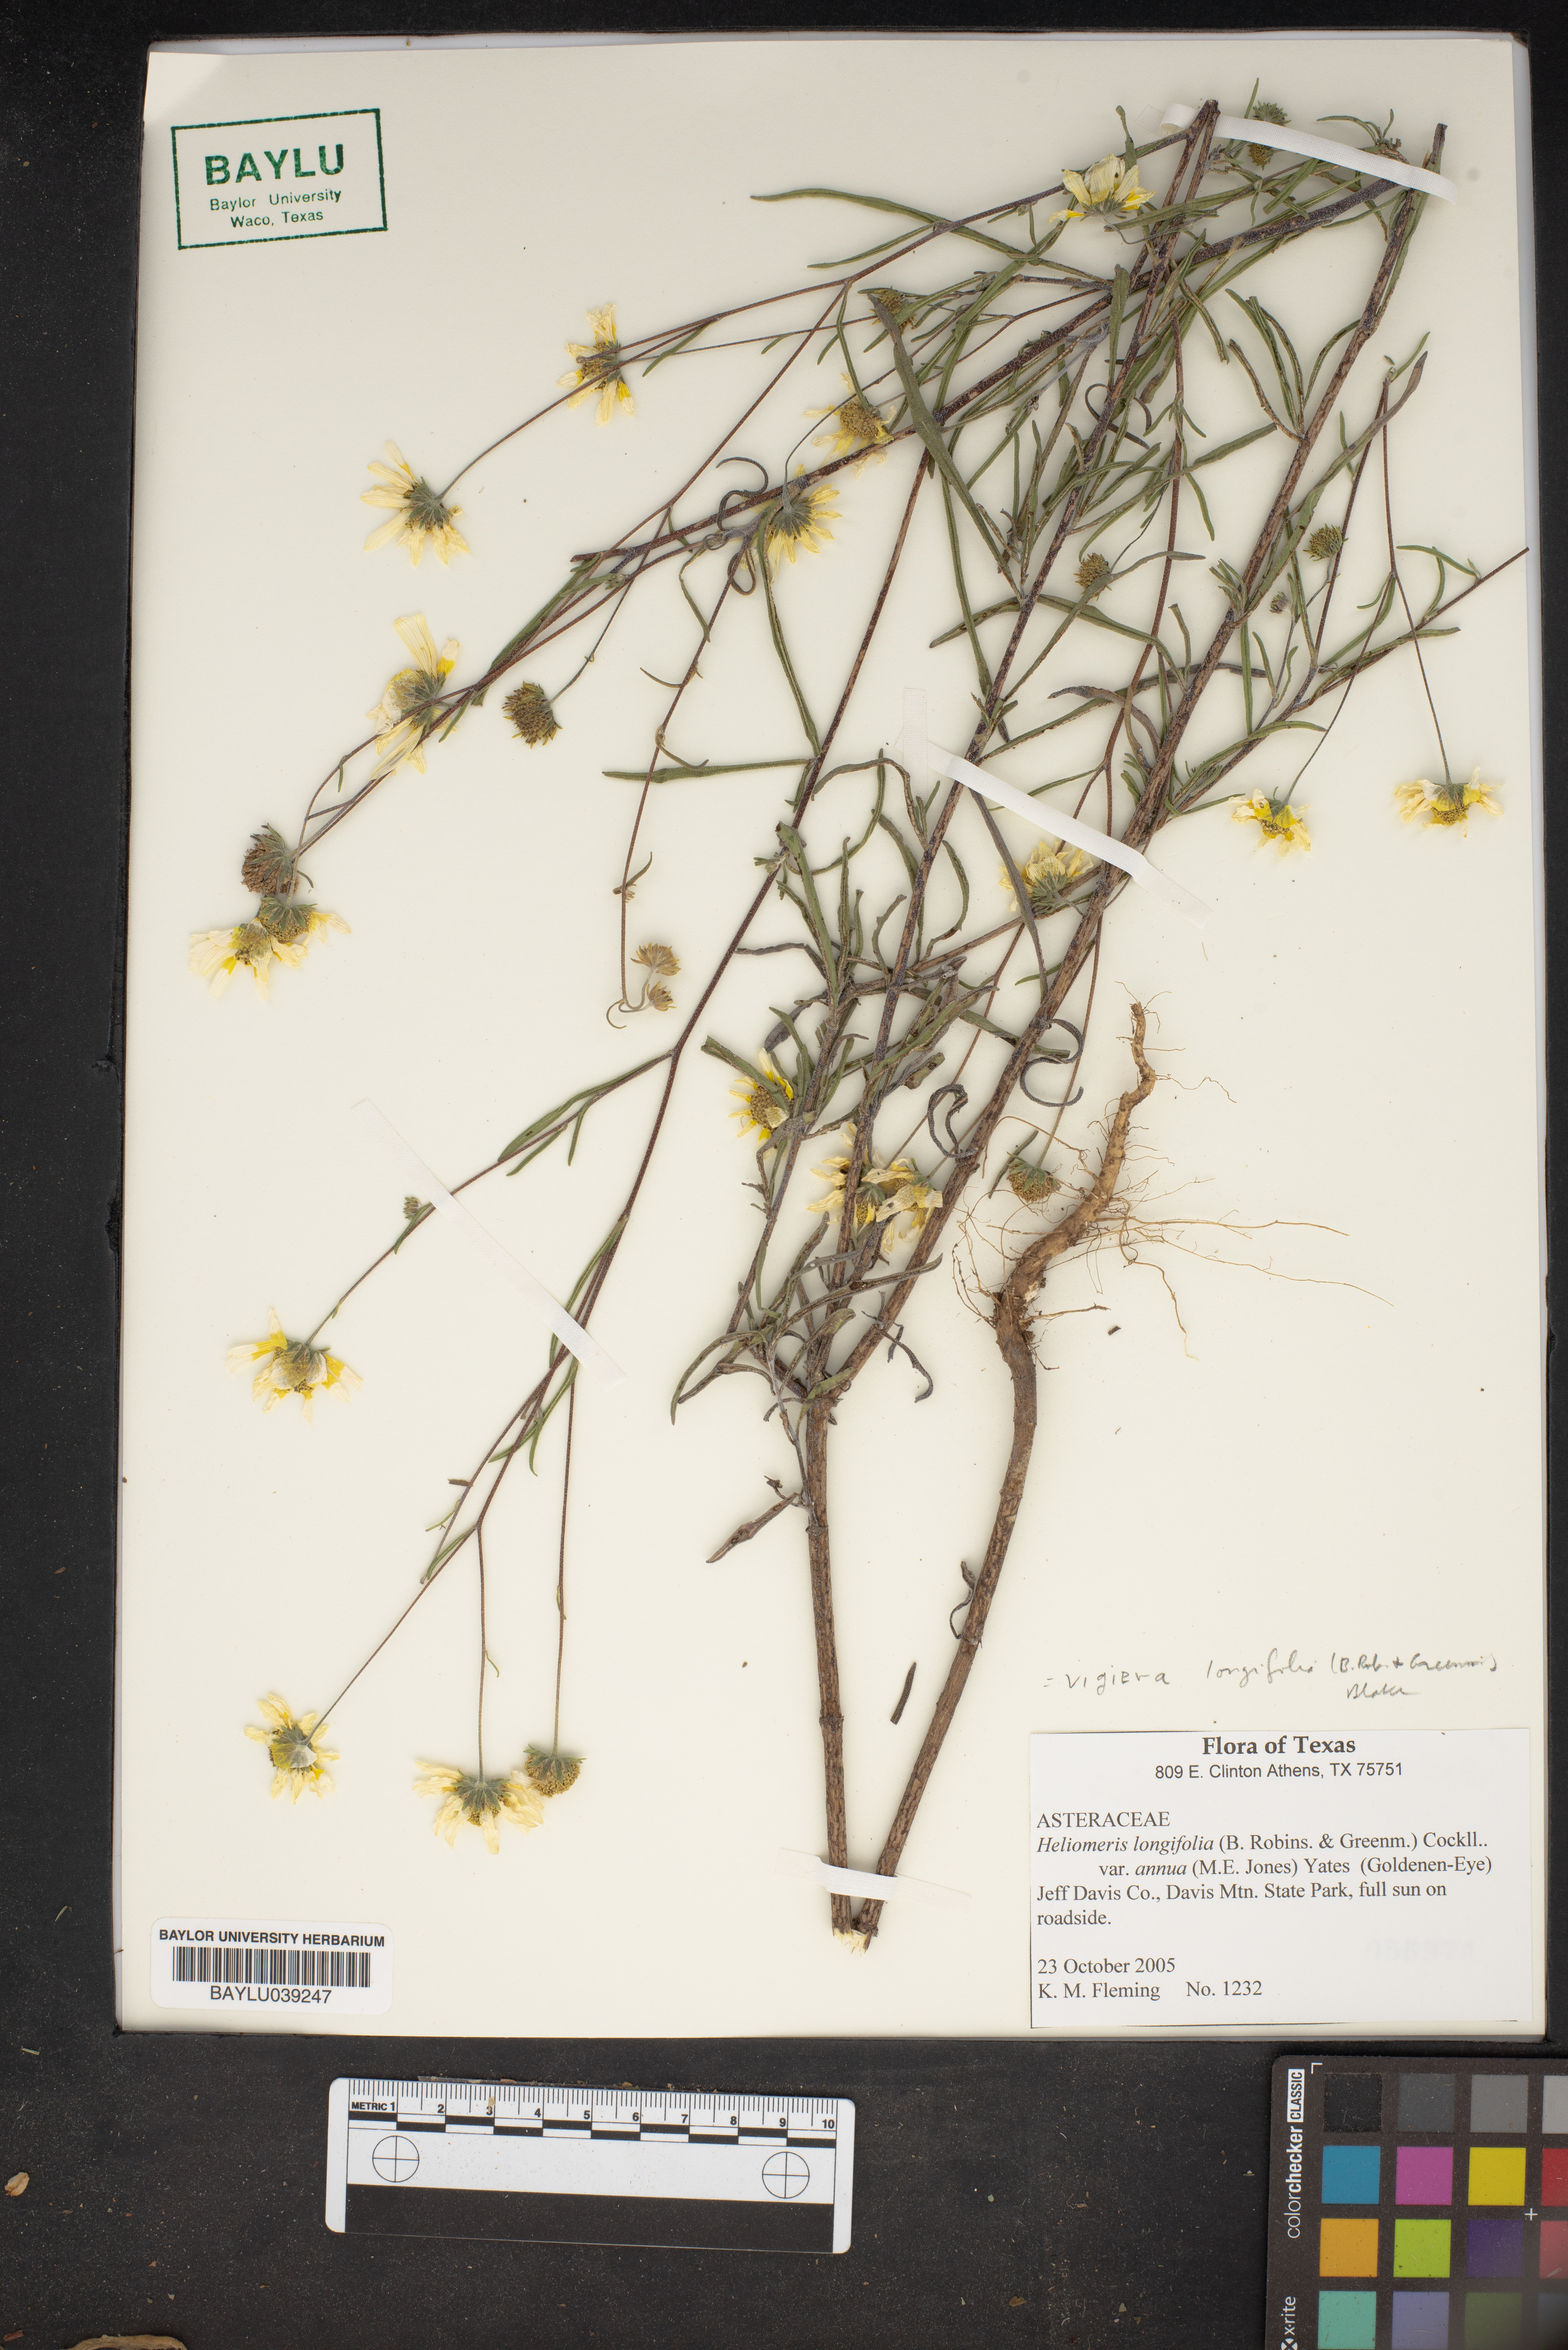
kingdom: Plantae
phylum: Tracheophyta
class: Magnoliopsida
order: Asterales
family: Asteraceae
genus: Heliomeris
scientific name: Heliomeris longifolia
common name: Longleaf false goldeneye
